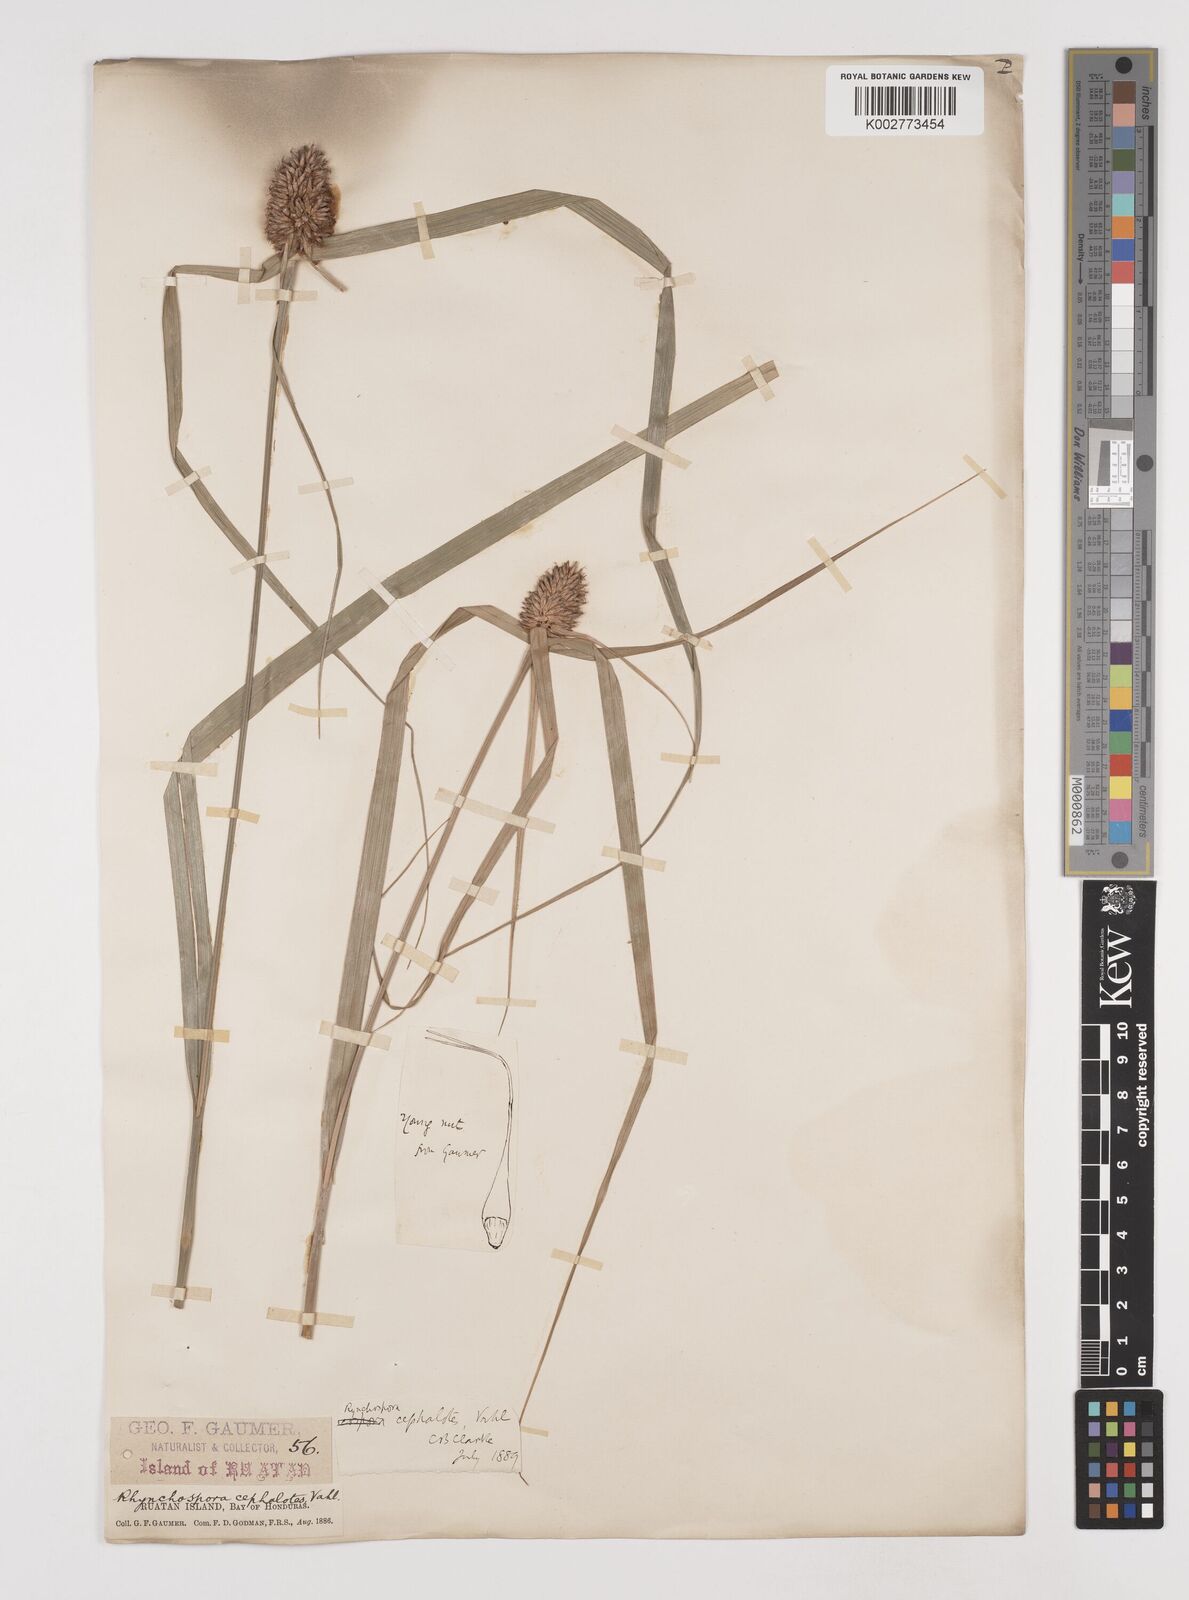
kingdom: Plantae
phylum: Tracheophyta
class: Liliopsida
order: Poales
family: Cyperaceae
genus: Rhynchospora
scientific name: Rhynchospora cephalotes
